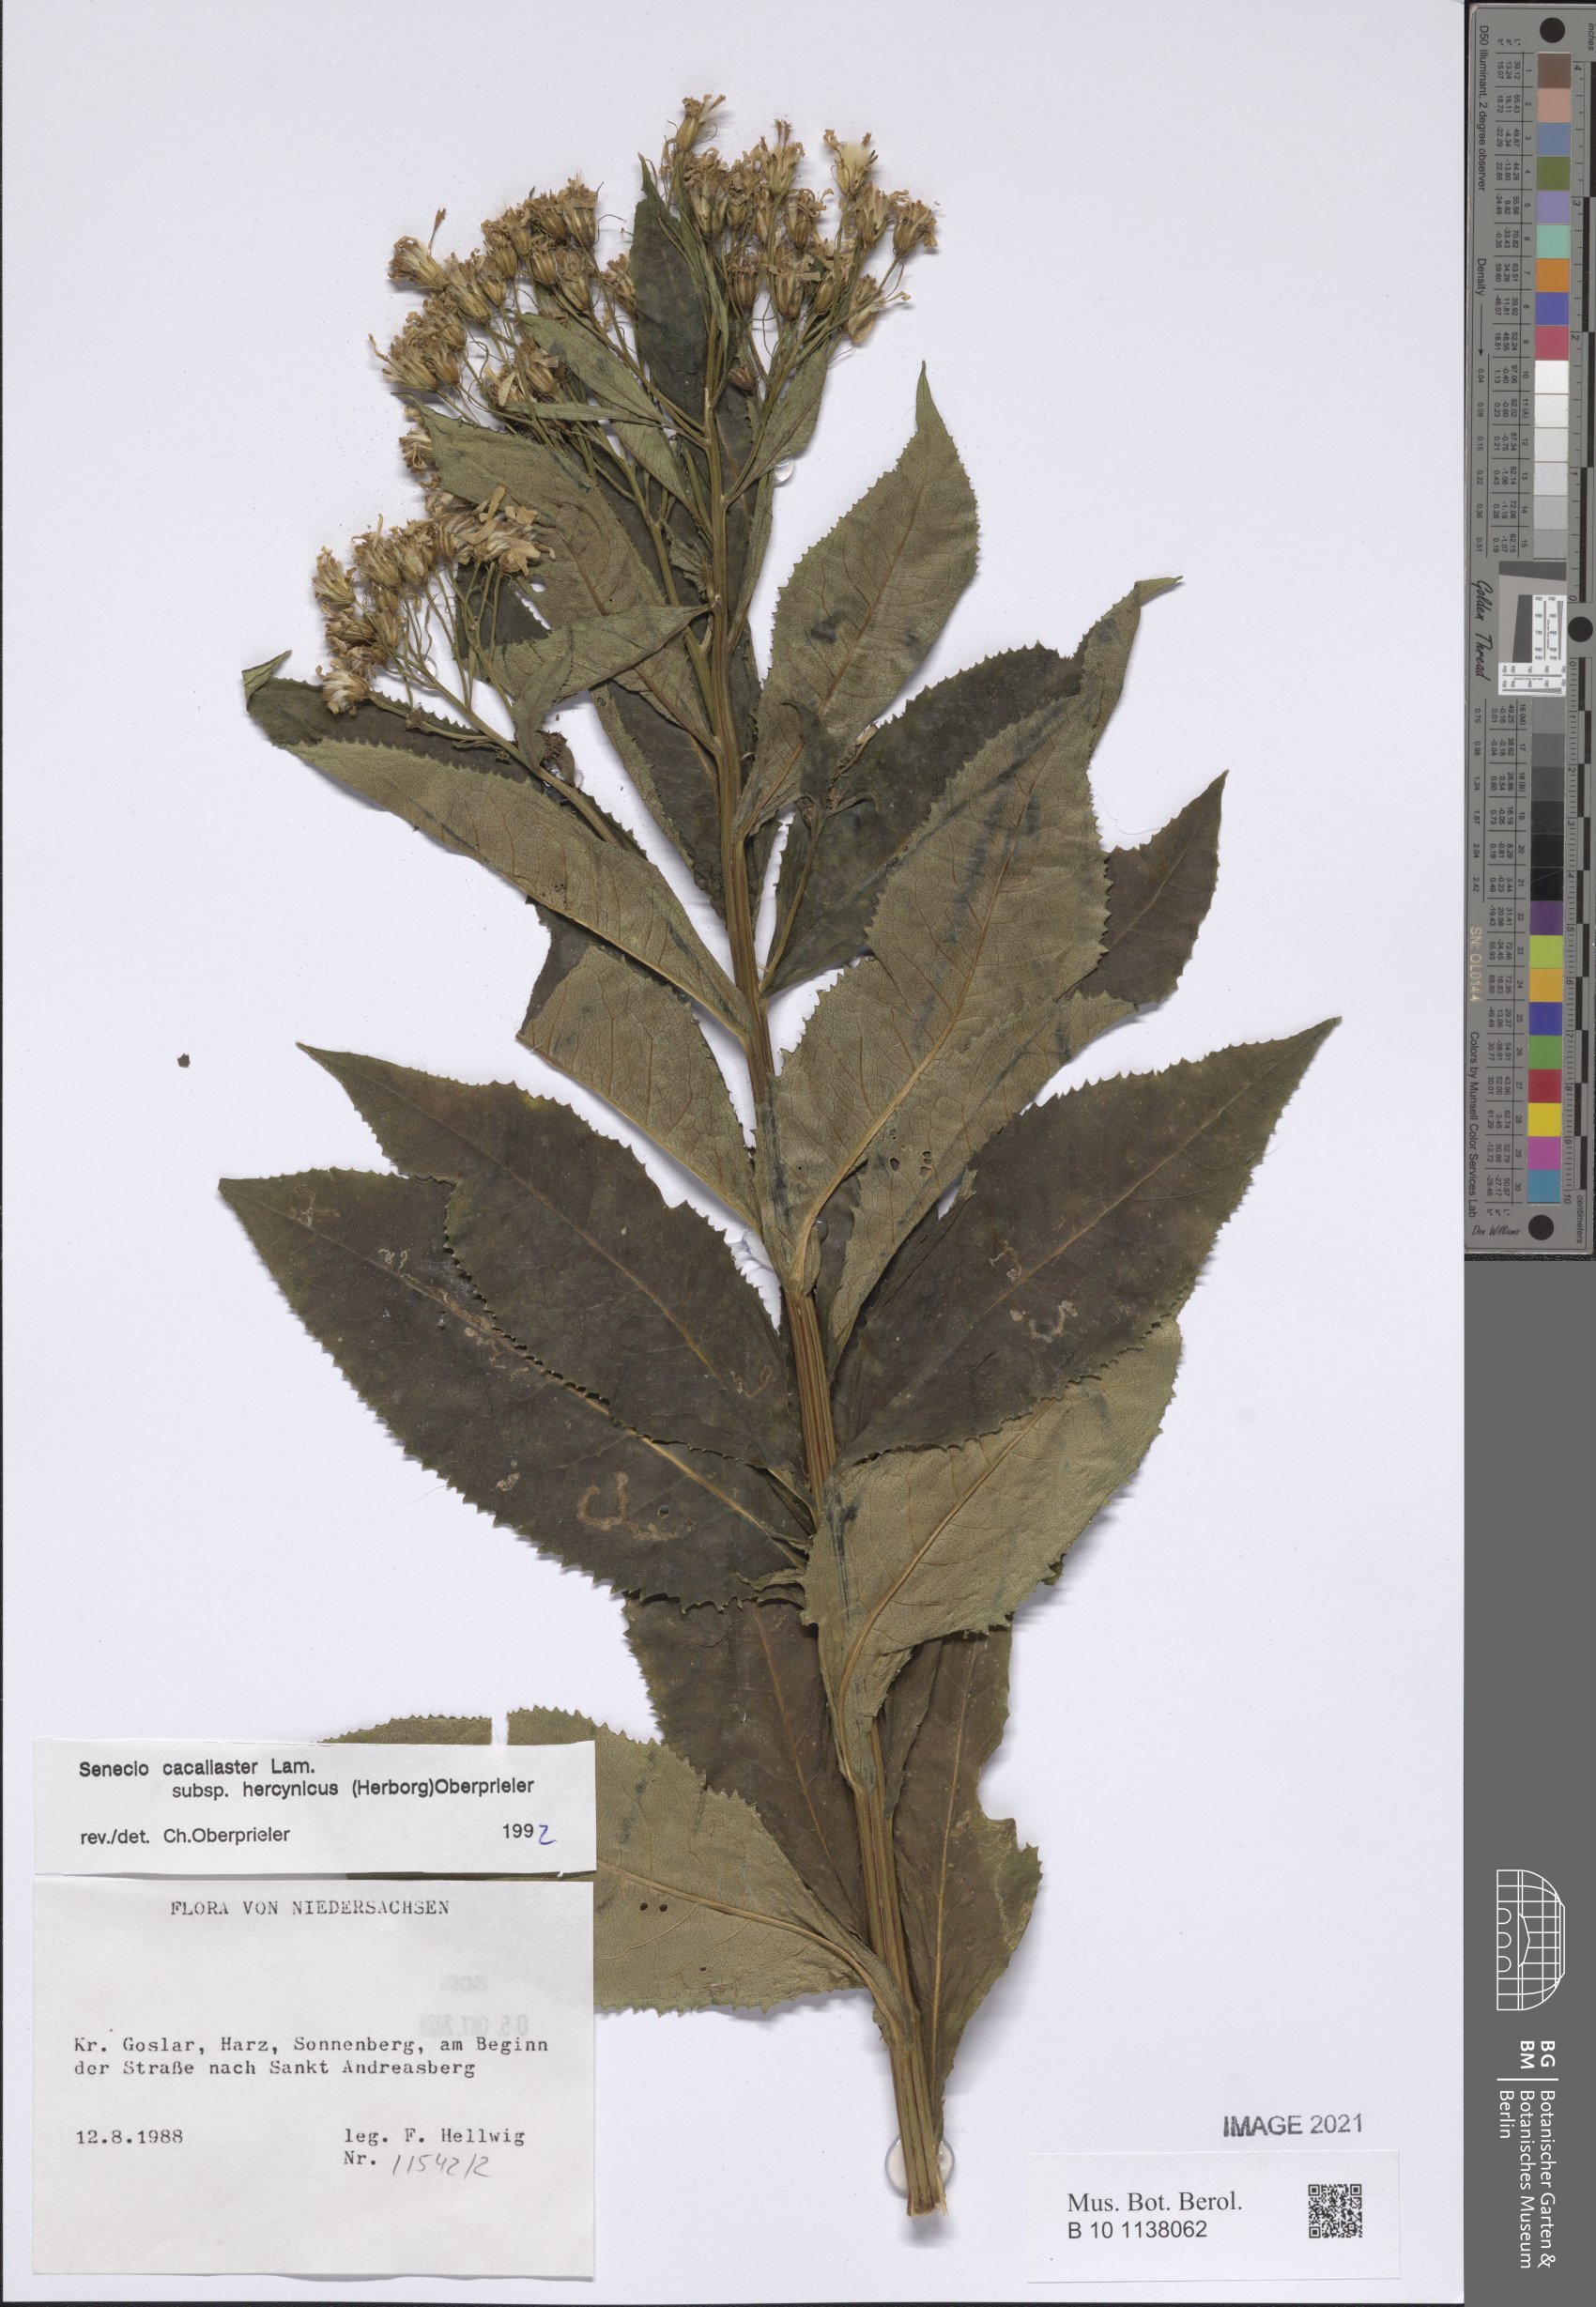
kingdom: Plantae
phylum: Tracheophyta
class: Magnoliopsida
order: Asterales
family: Asteraceae
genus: Senecio
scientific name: Senecio hercynicus
